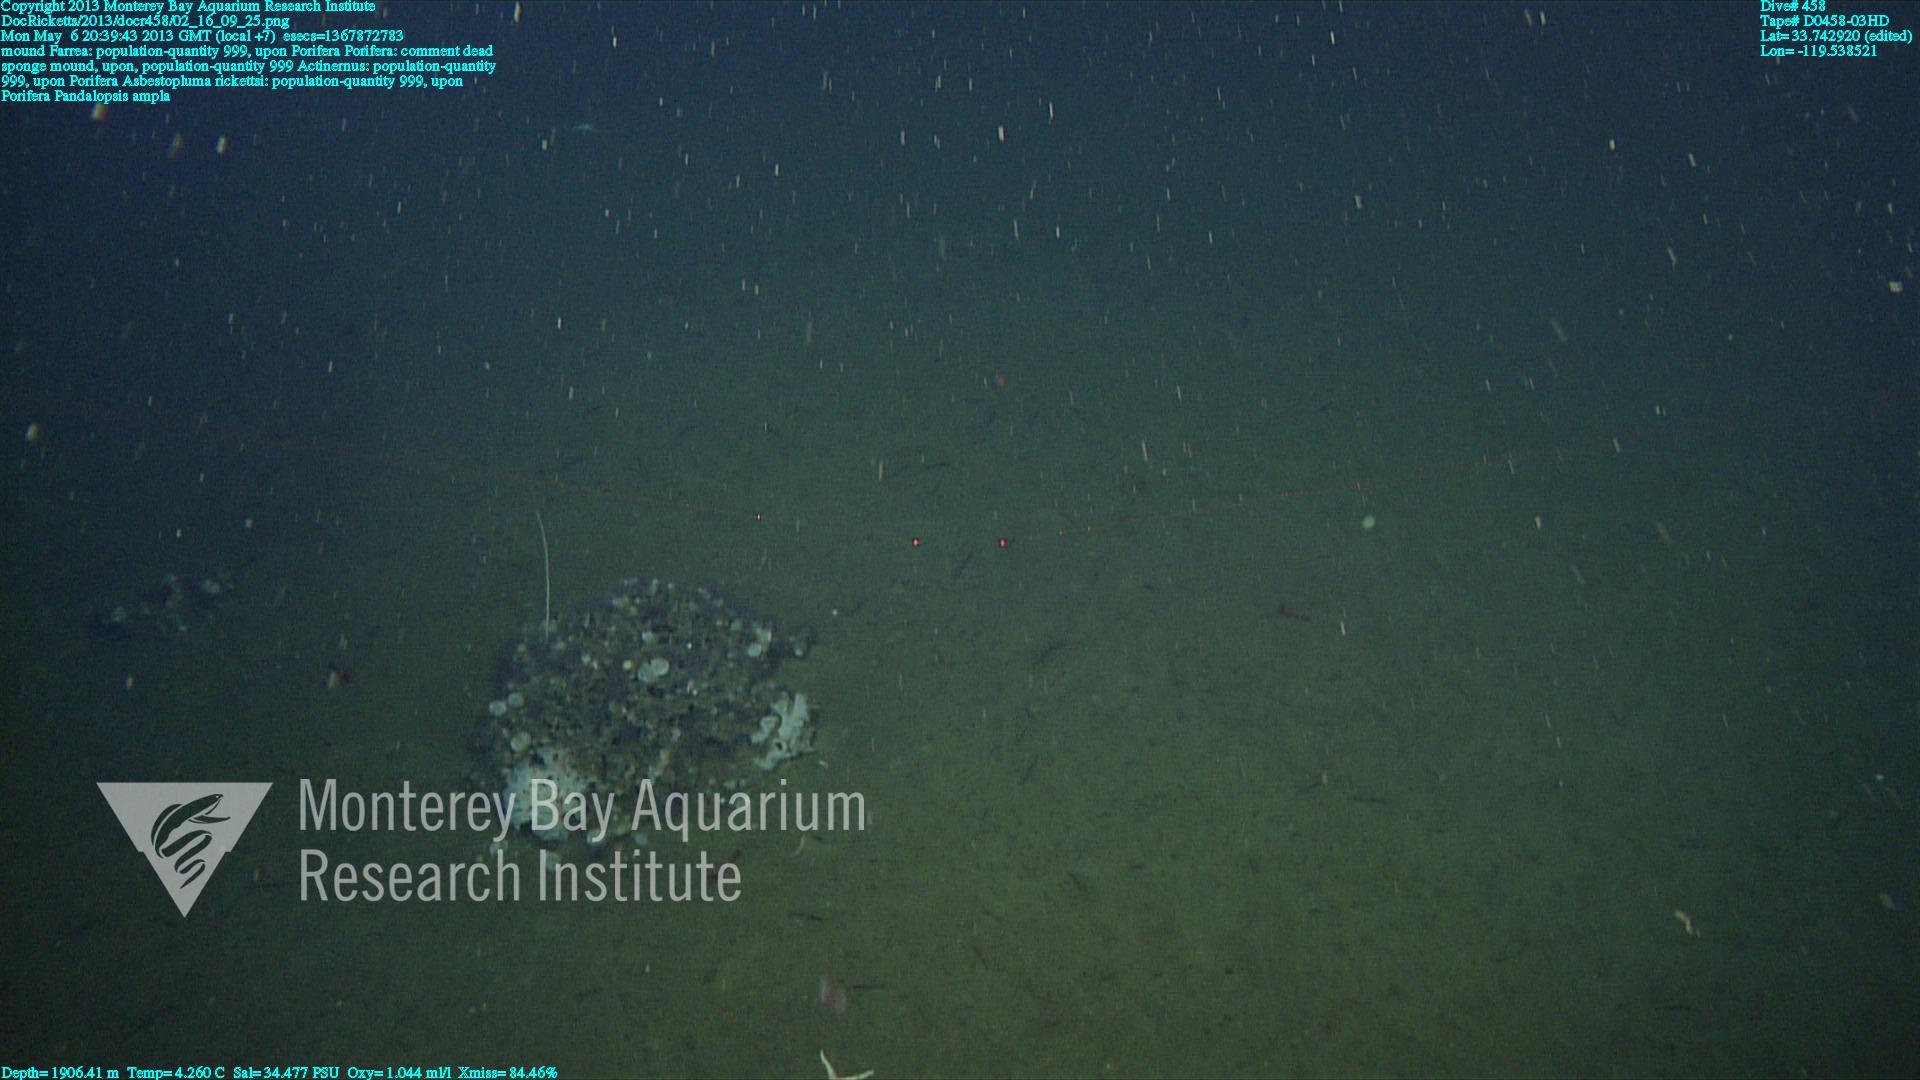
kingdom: Animalia
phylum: Porifera
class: Hexactinellida
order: Sceptrulophora
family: Farreidae
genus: Farrea
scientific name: Farrea
